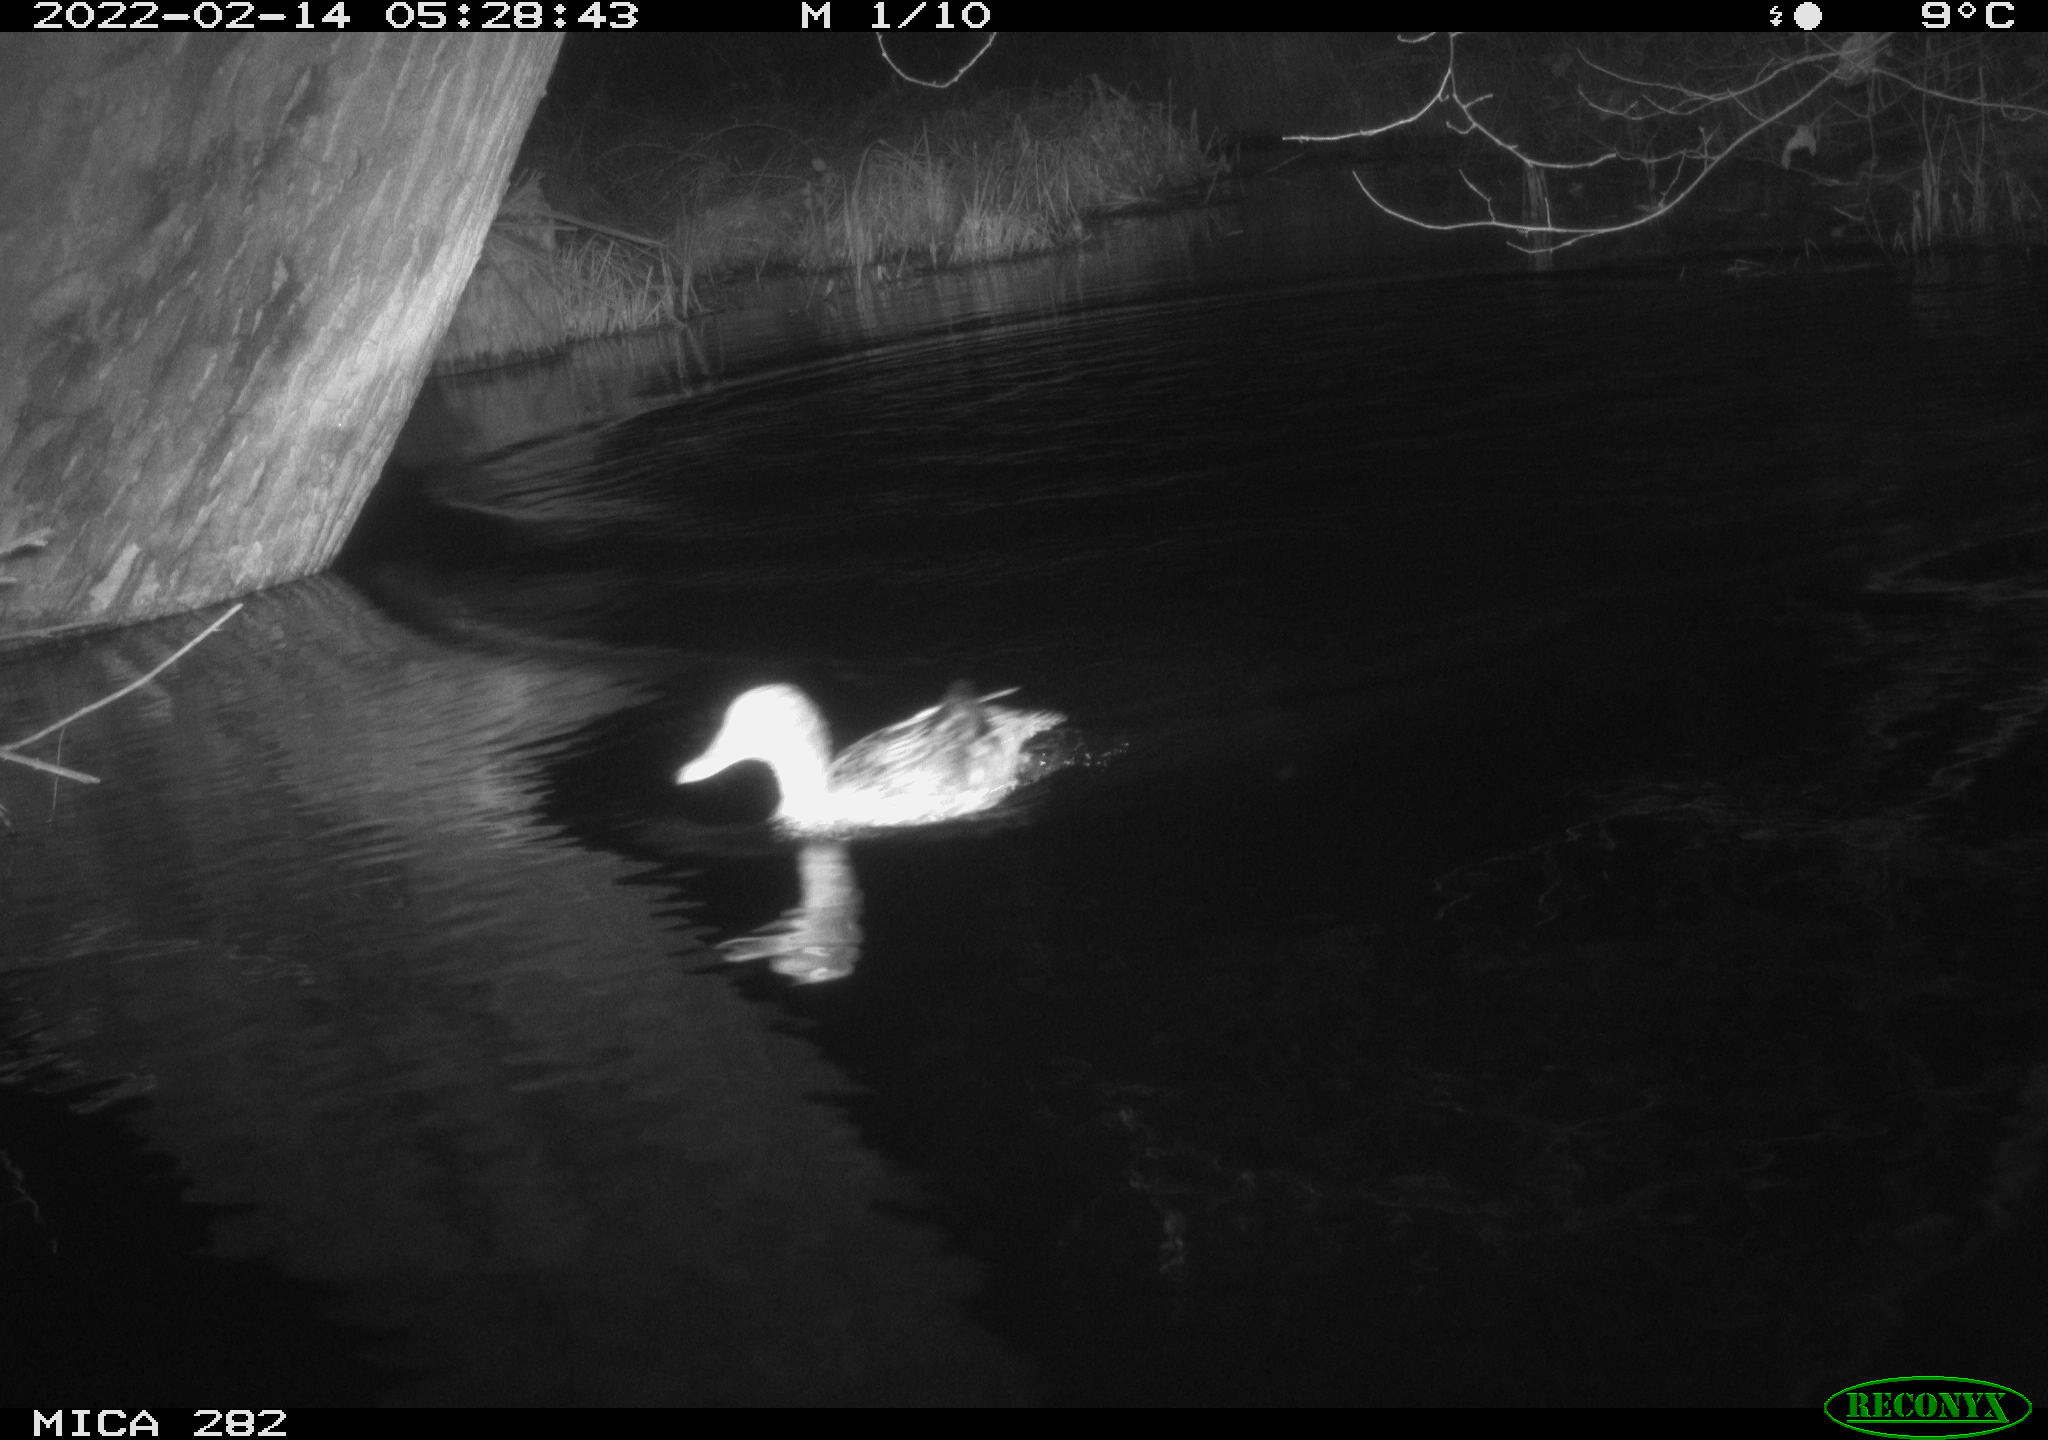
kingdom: Animalia
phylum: Chordata
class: Aves
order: Anseriformes
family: Anatidae
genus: Mareca
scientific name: Mareca strepera
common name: Gadwall
